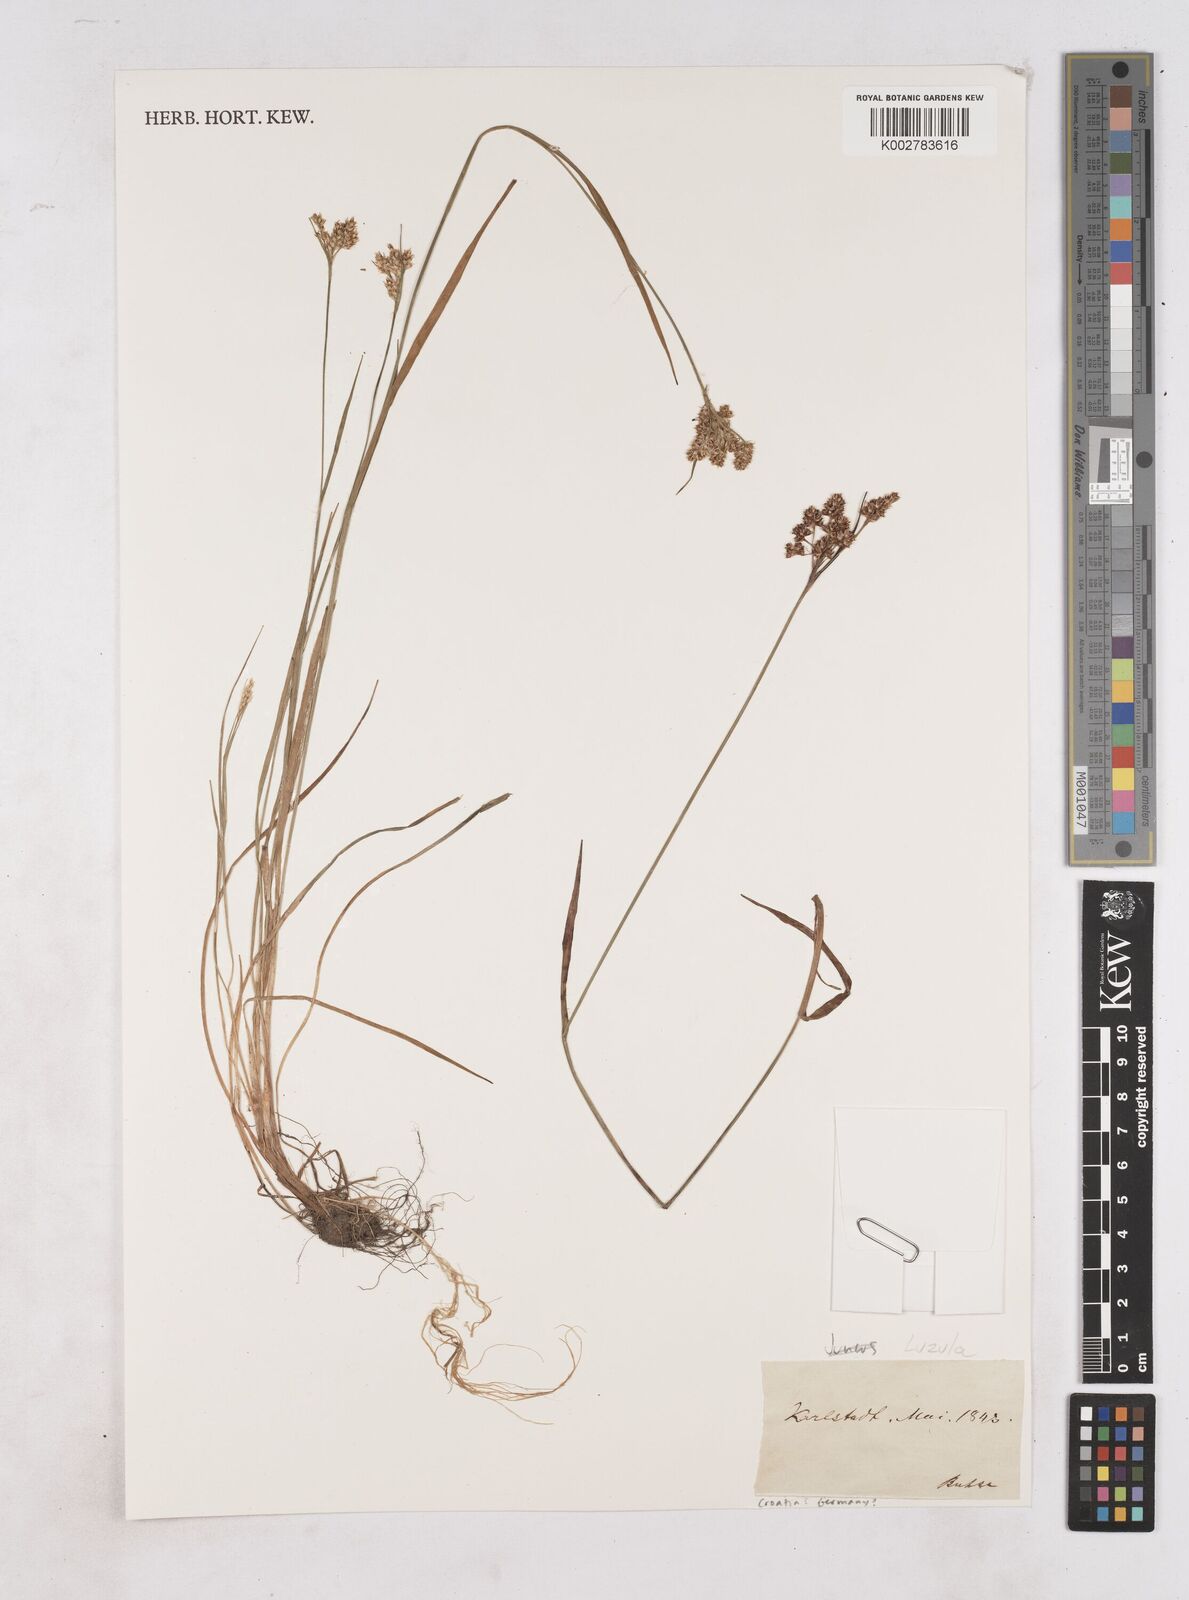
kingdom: Plantae
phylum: Tracheophyta
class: Liliopsida
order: Poales
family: Juncaceae
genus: Luzula
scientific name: Luzula
